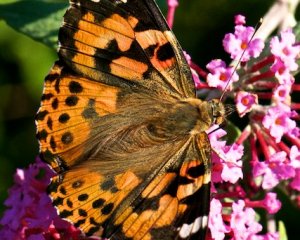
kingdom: Animalia
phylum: Arthropoda
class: Insecta
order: Lepidoptera
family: Nymphalidae
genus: Vanessa
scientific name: Vanessa cardui
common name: Painted Lady
